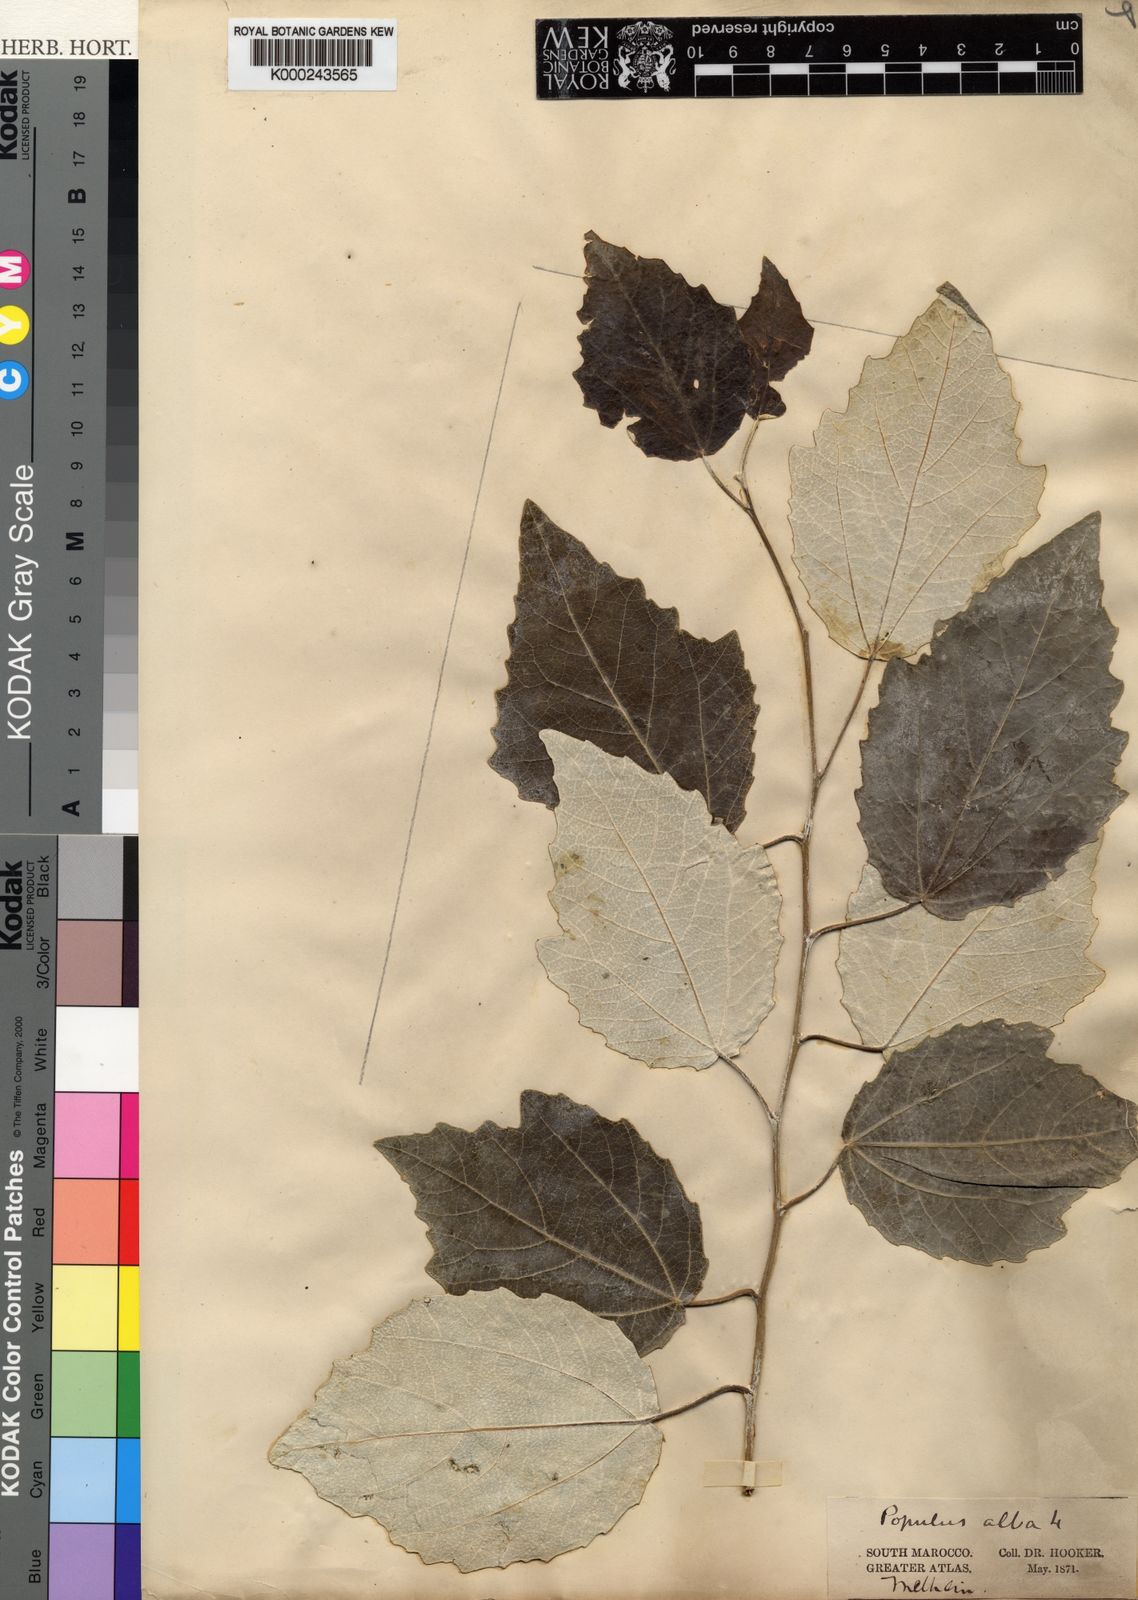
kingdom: Plantae
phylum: Tracheophyta
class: Magnoliopsida
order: Malpighiales
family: Salicaceae
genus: Populus
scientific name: Populus alba
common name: White poplar
